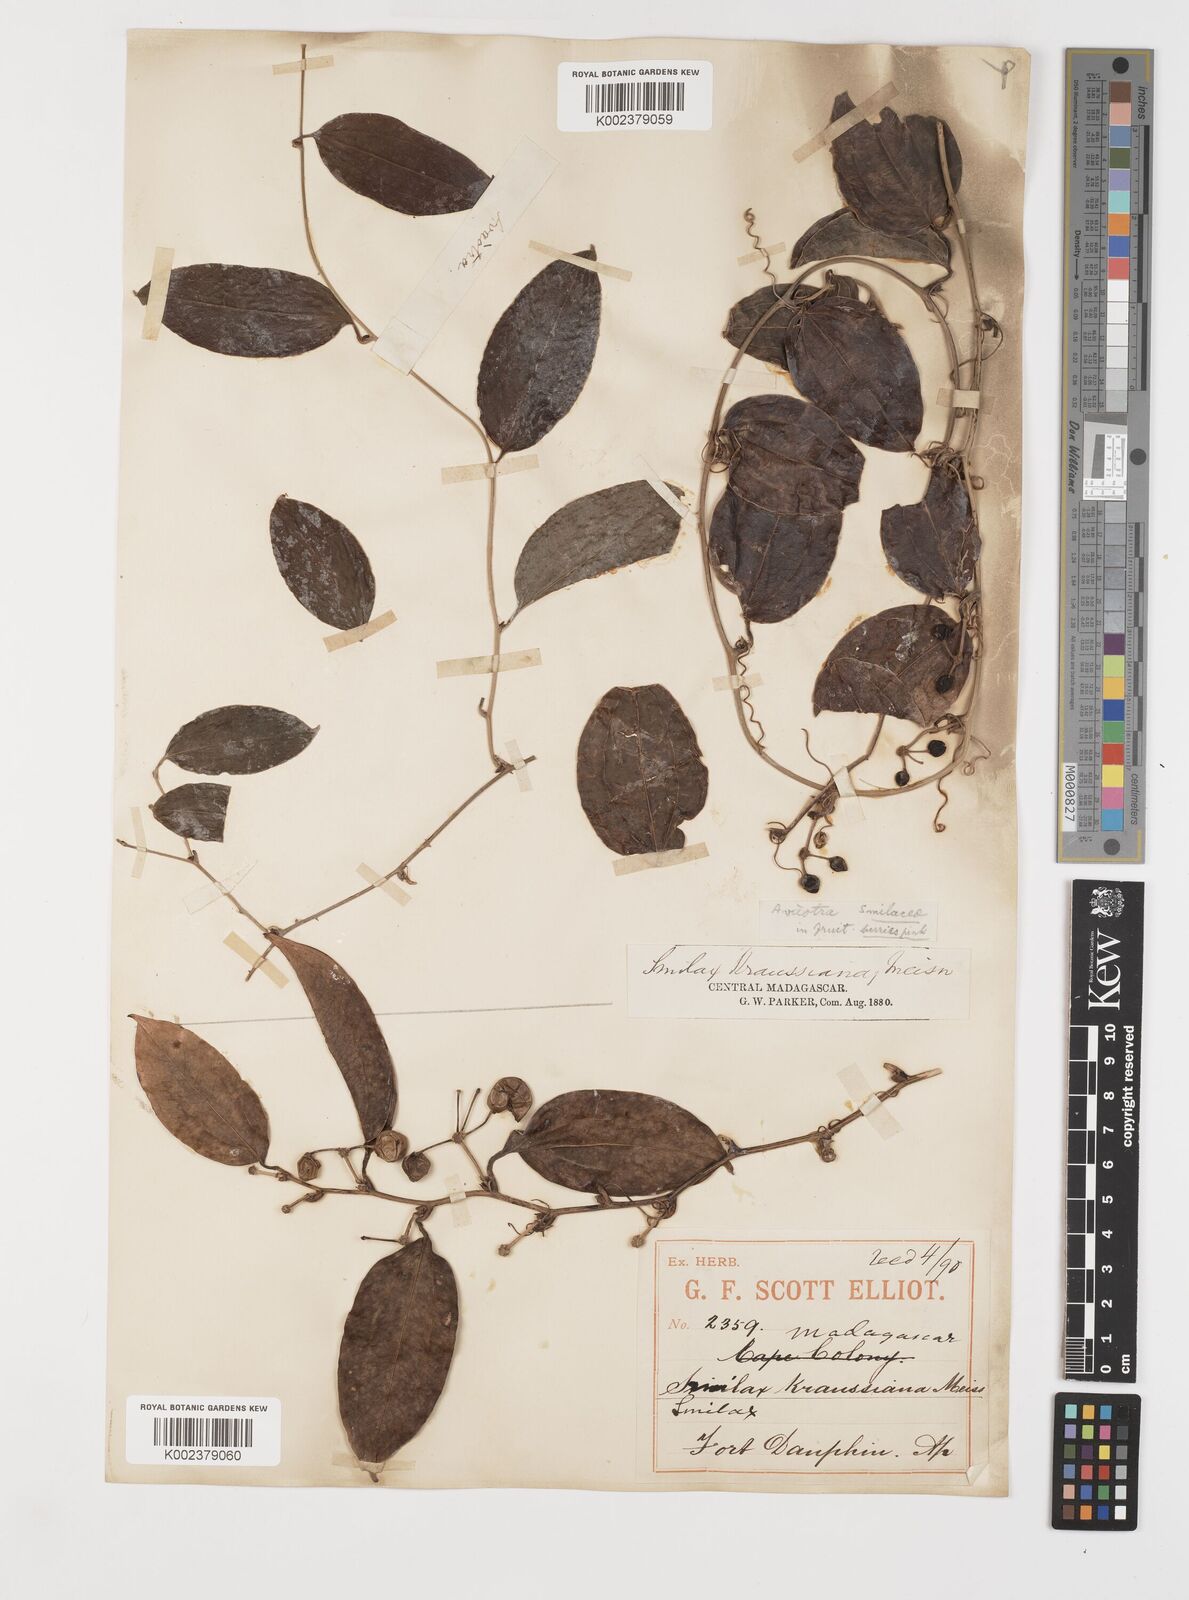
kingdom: Plantae
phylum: Tracheophyta
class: Liliopsida
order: Liliales
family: Smilacaceae
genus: Smilax
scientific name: Smilax anceps
